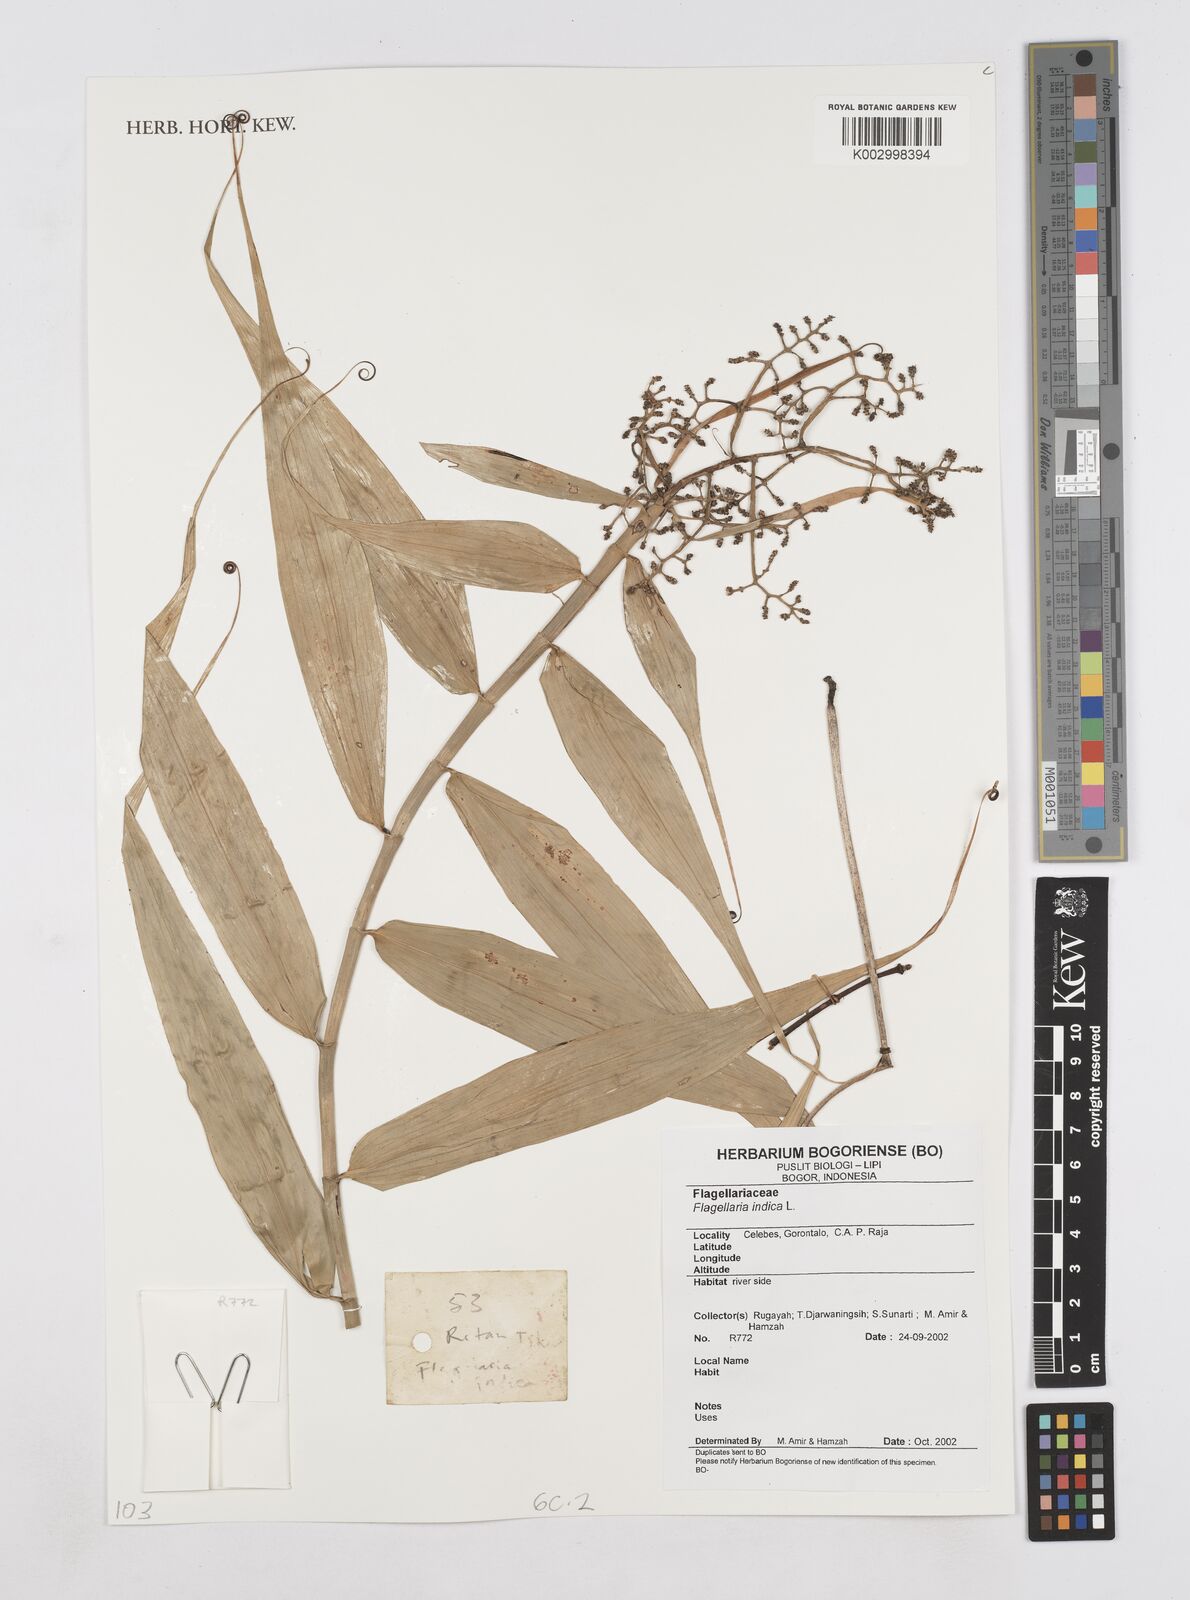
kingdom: Plantae
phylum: Tracheophyta
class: Liliopsida
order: Poales
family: Flagellariaceae
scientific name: Flagellariaceae
